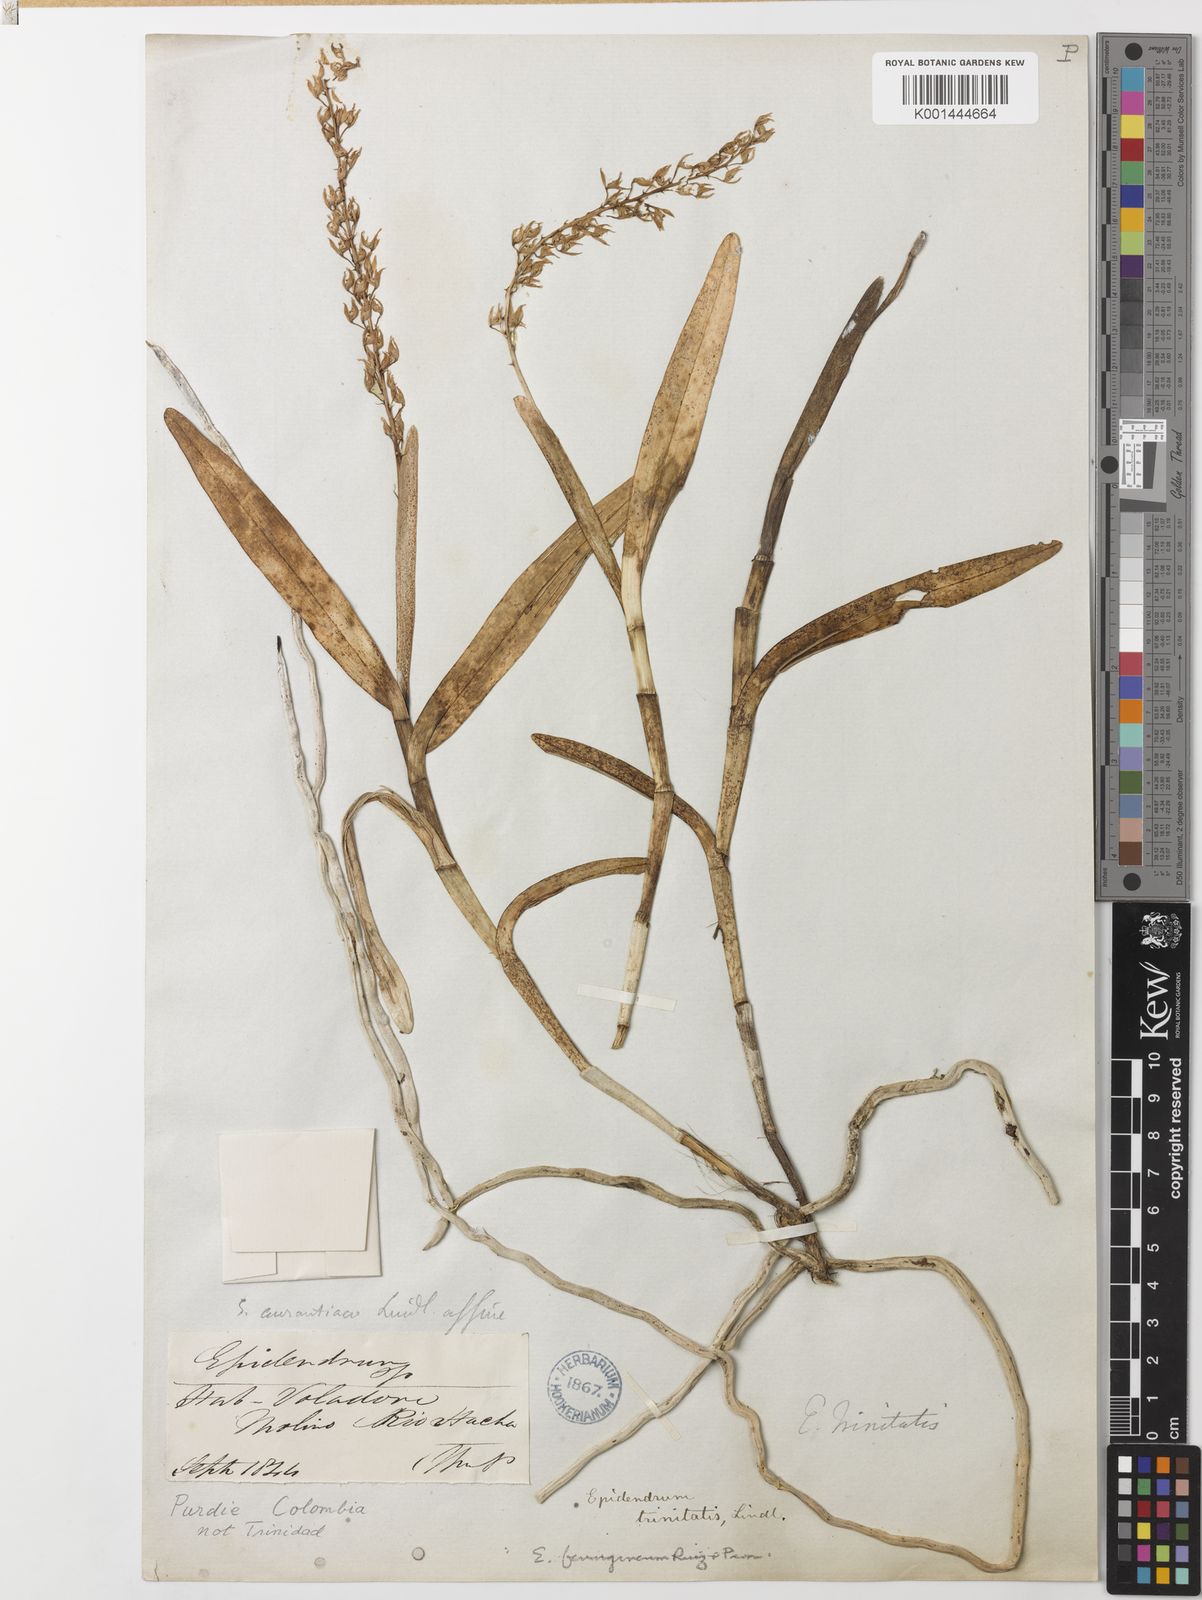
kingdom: Plantae
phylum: Tracheophyta
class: Liliopsida
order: Asparagales
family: Orchidaceae
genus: Epidendrum
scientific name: Epidendrum ferrugineum
